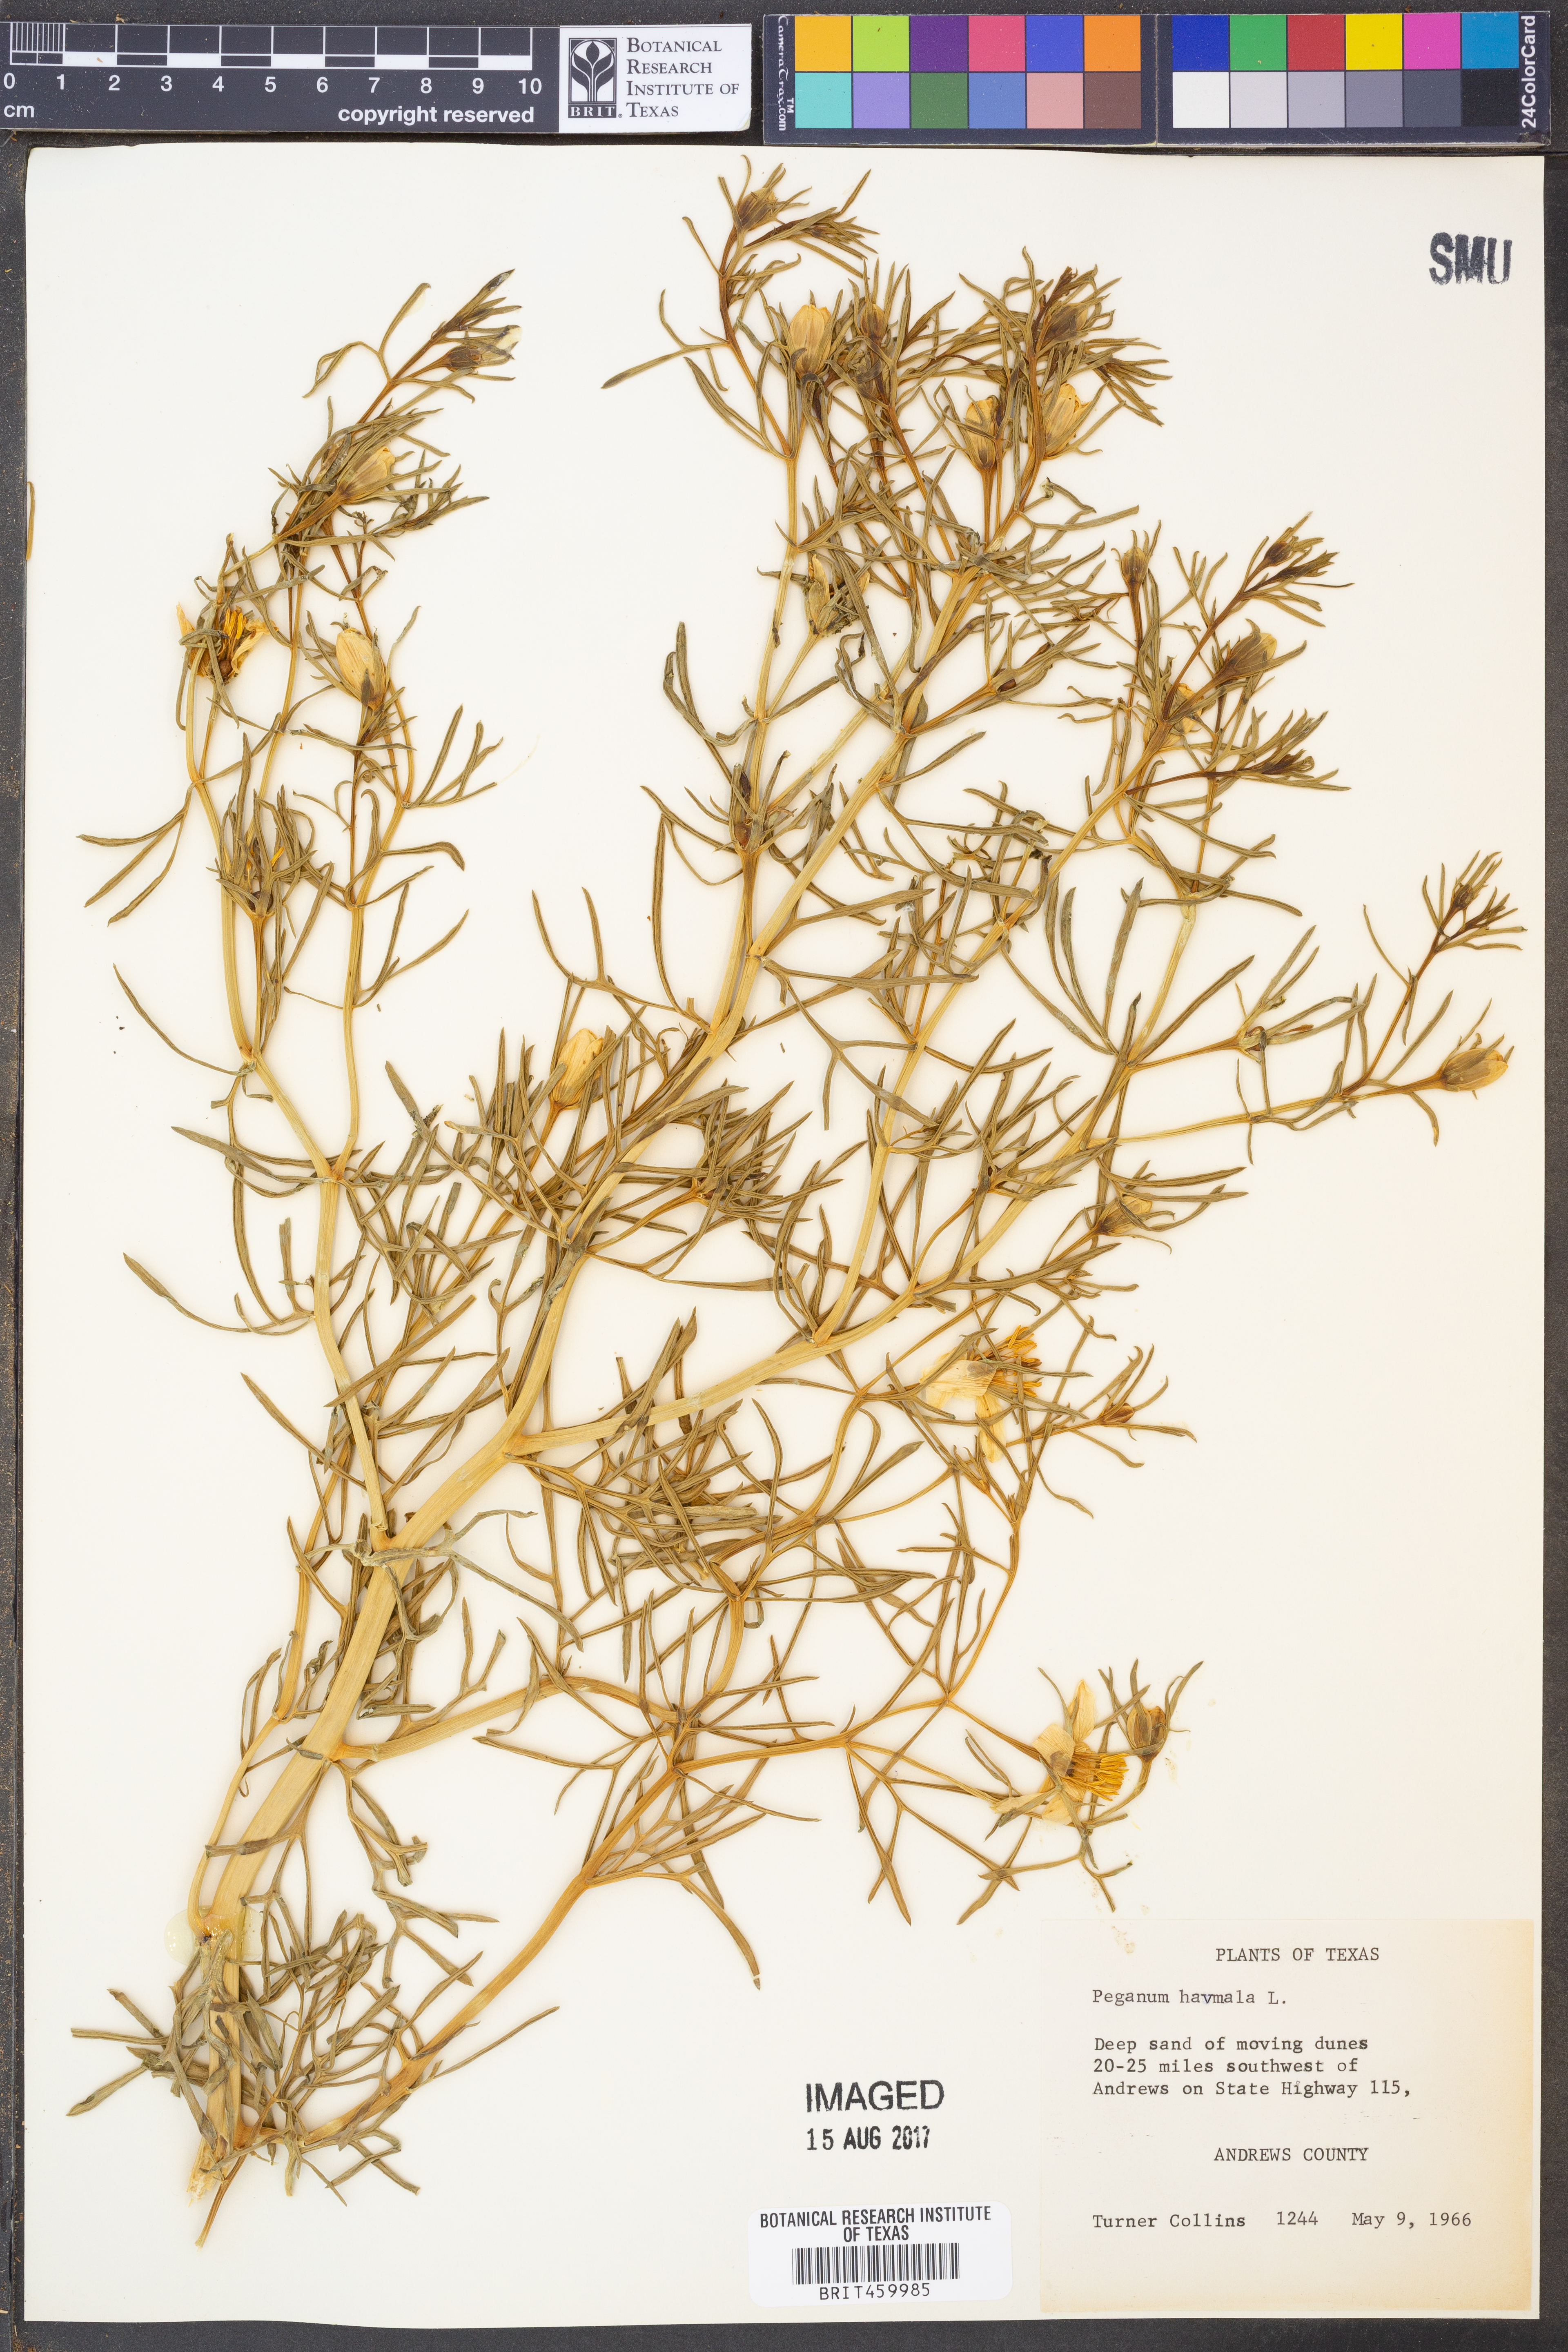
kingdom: Plantae
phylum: Tracheophyta
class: Magnoliopsida
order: Sapindales
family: Tetradiclidaceae
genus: Peganum
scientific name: Peganum harmala
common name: Harmal peganum
